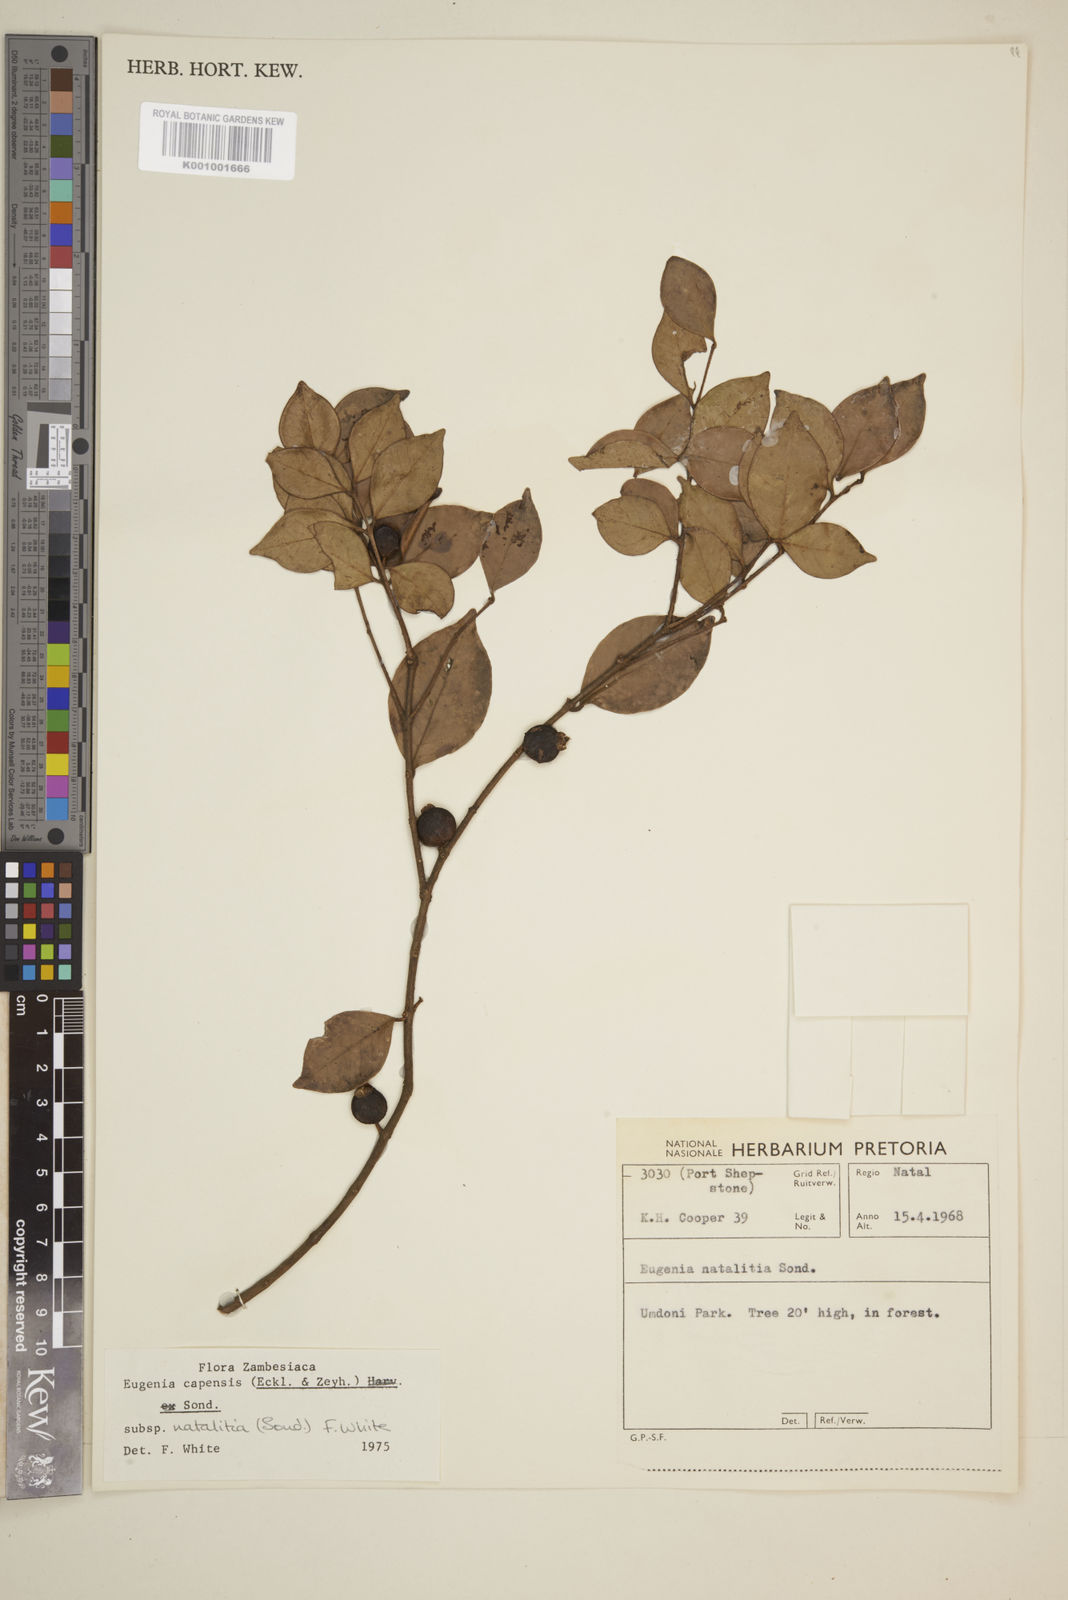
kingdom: Plantae
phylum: Tracheophyta
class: Magnoliopsida
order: Myrtales
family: Myrtaceae
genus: Eugenia
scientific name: Eugenia natalitia
